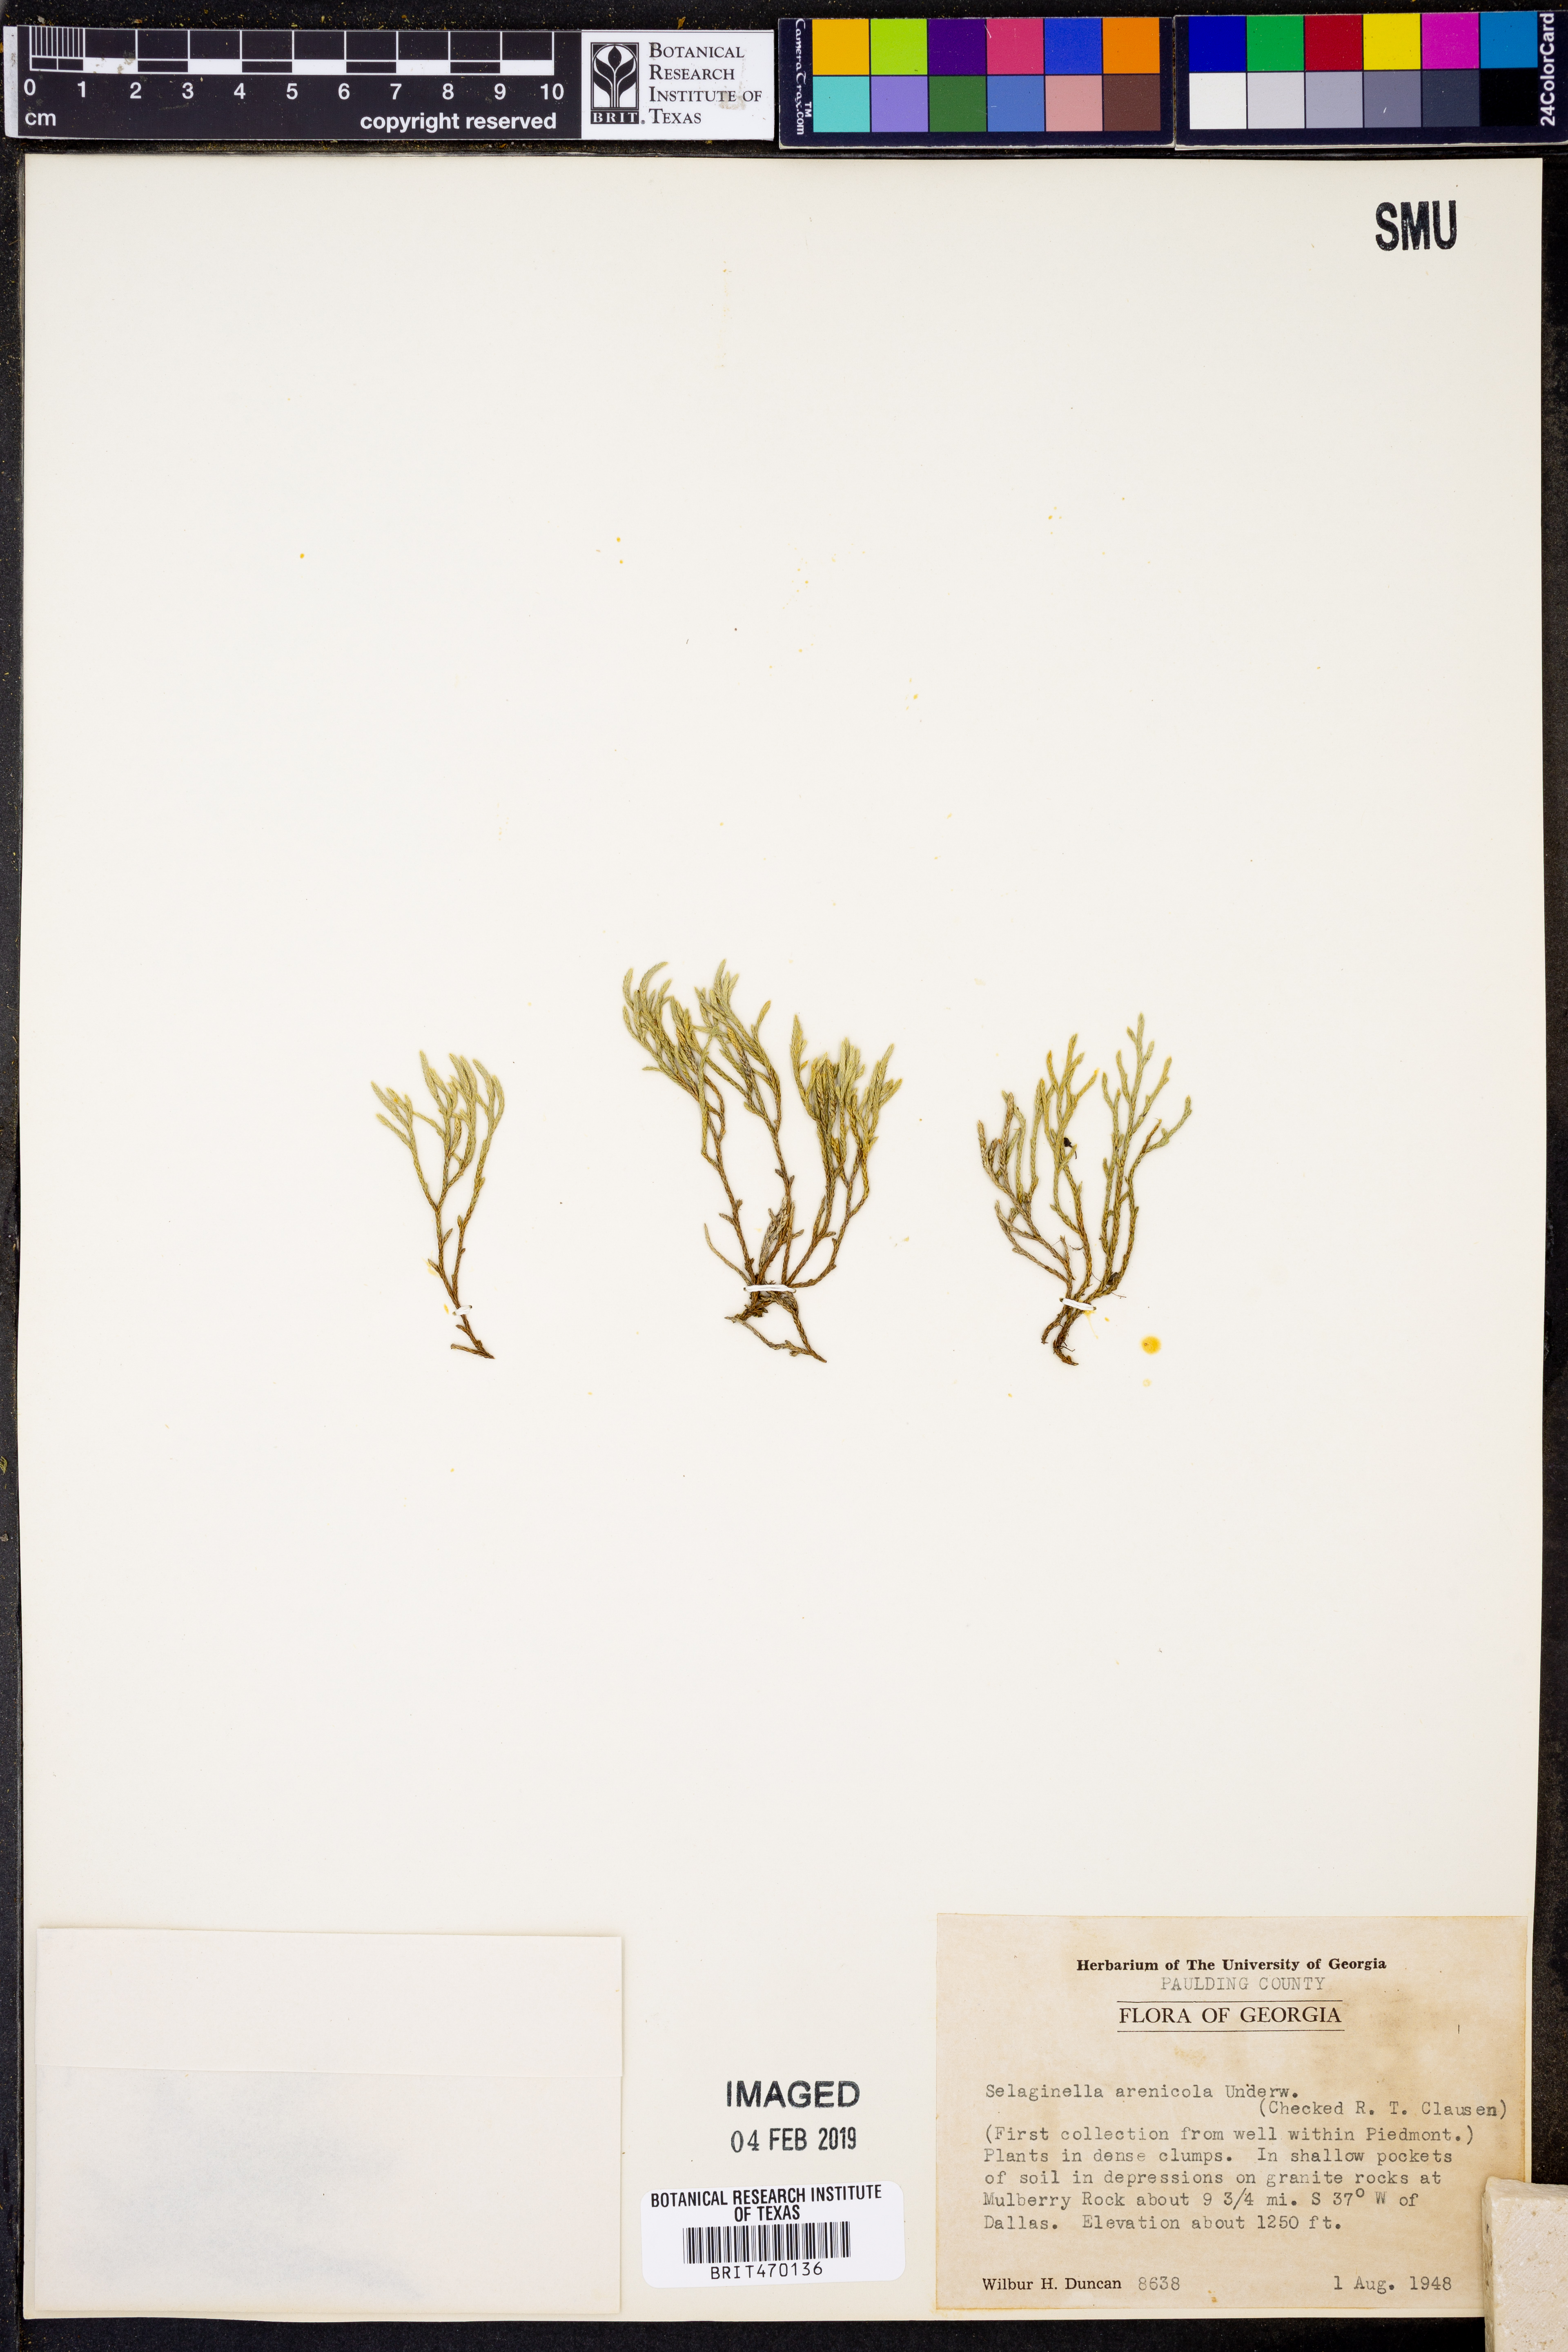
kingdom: Plantae
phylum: Tracheophyta
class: Lycopodiopsida
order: Selaginellales
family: Selaginellaceae
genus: Selaginella
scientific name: Selaginella arenicola
